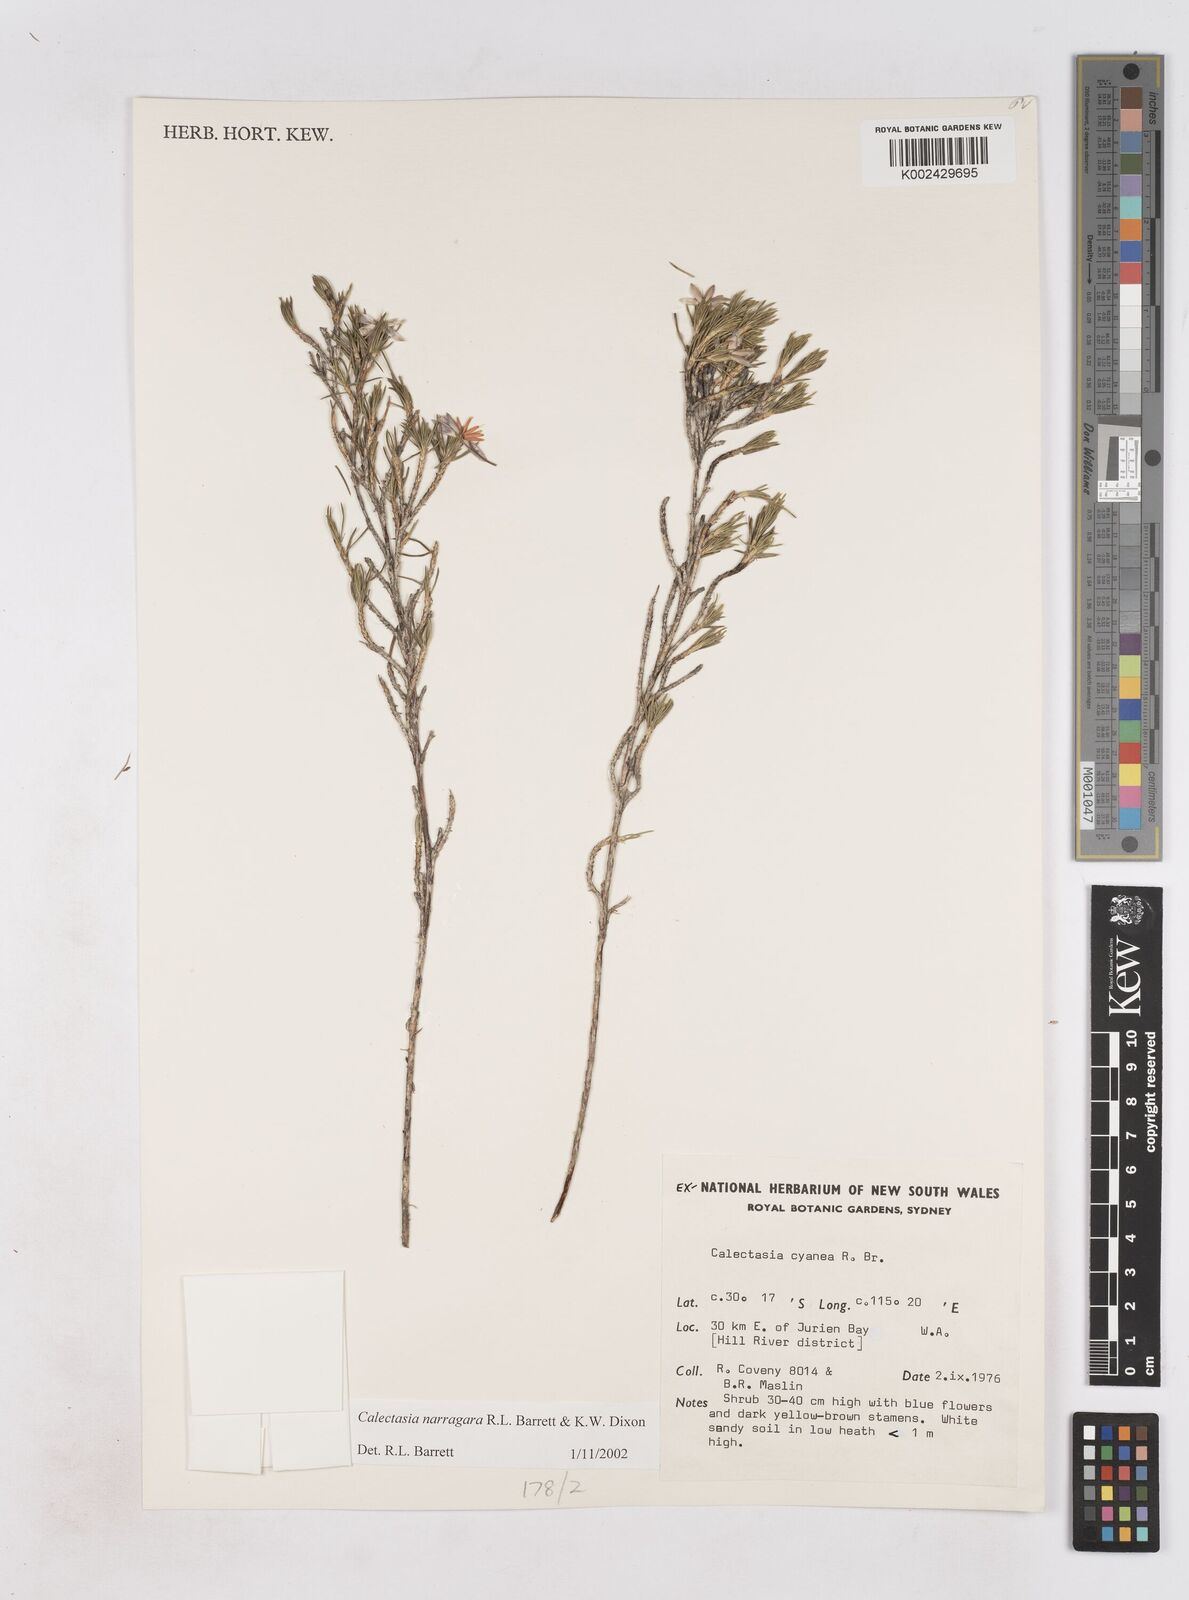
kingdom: Plantae
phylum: Tracheophyta
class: Liliopsida
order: Arecales
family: Dasypogonaceae
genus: Calectasia
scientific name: Calectasia narragara
